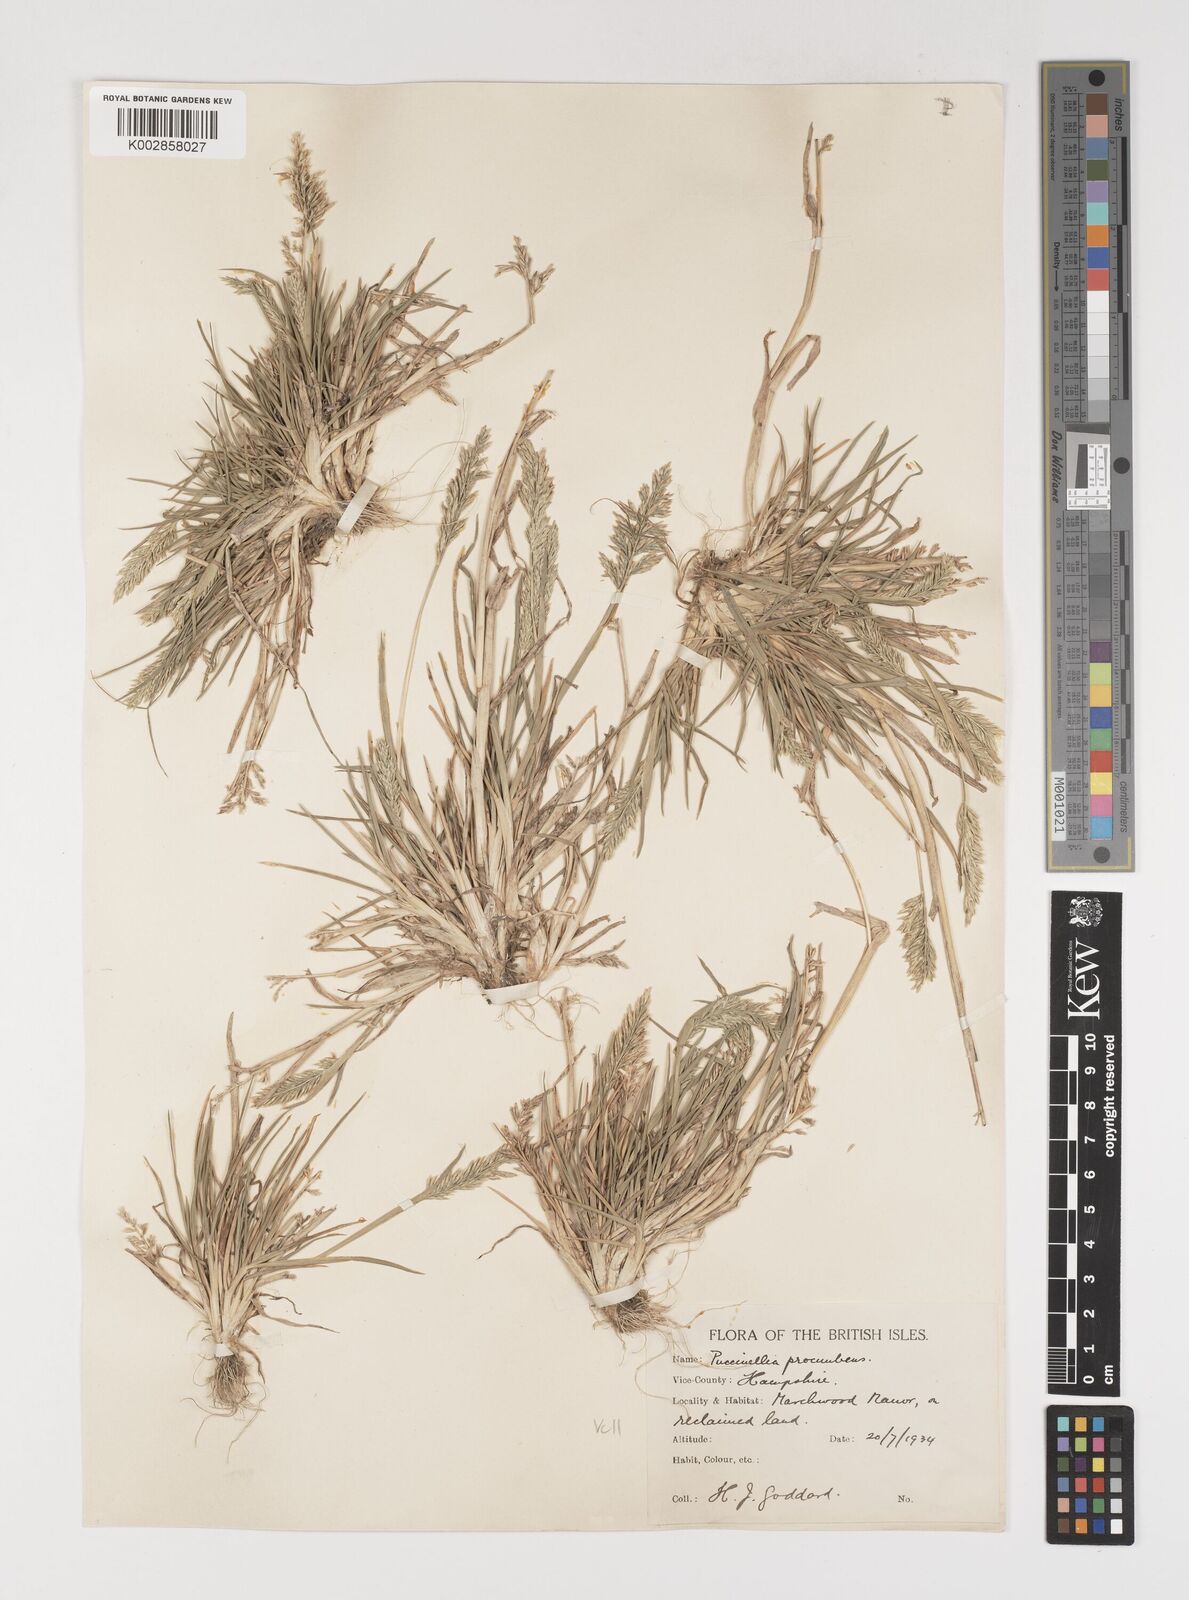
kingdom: Plantae
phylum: Tracheophyta
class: Liliopsida
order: Poales
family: Poaceae
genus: Puccinellia
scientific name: Puccinellia rupestris
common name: Stiff saltmarsh-grass
